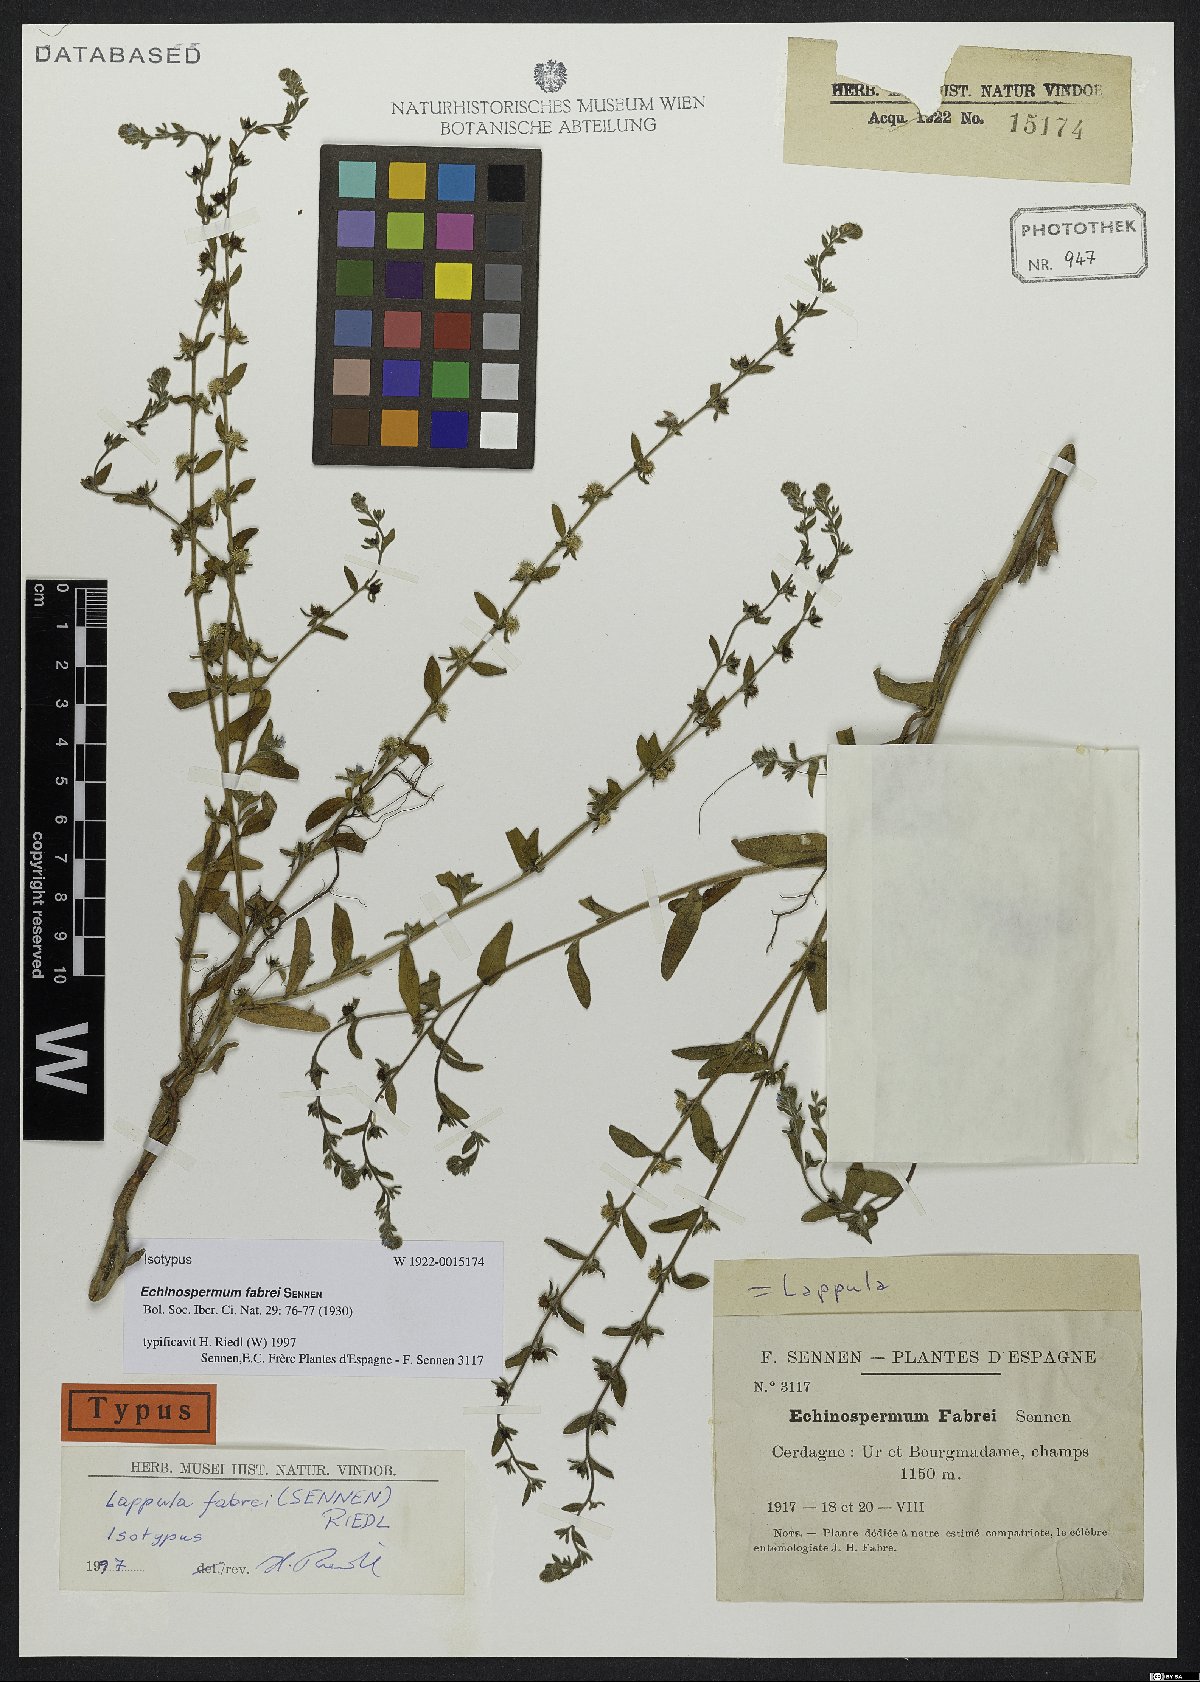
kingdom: Plantae
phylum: Tracheophyta
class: Magnoliopsida
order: Boraginales
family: Boraginaceae
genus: Lappula
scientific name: Lappula squarrosa
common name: European stickseed
